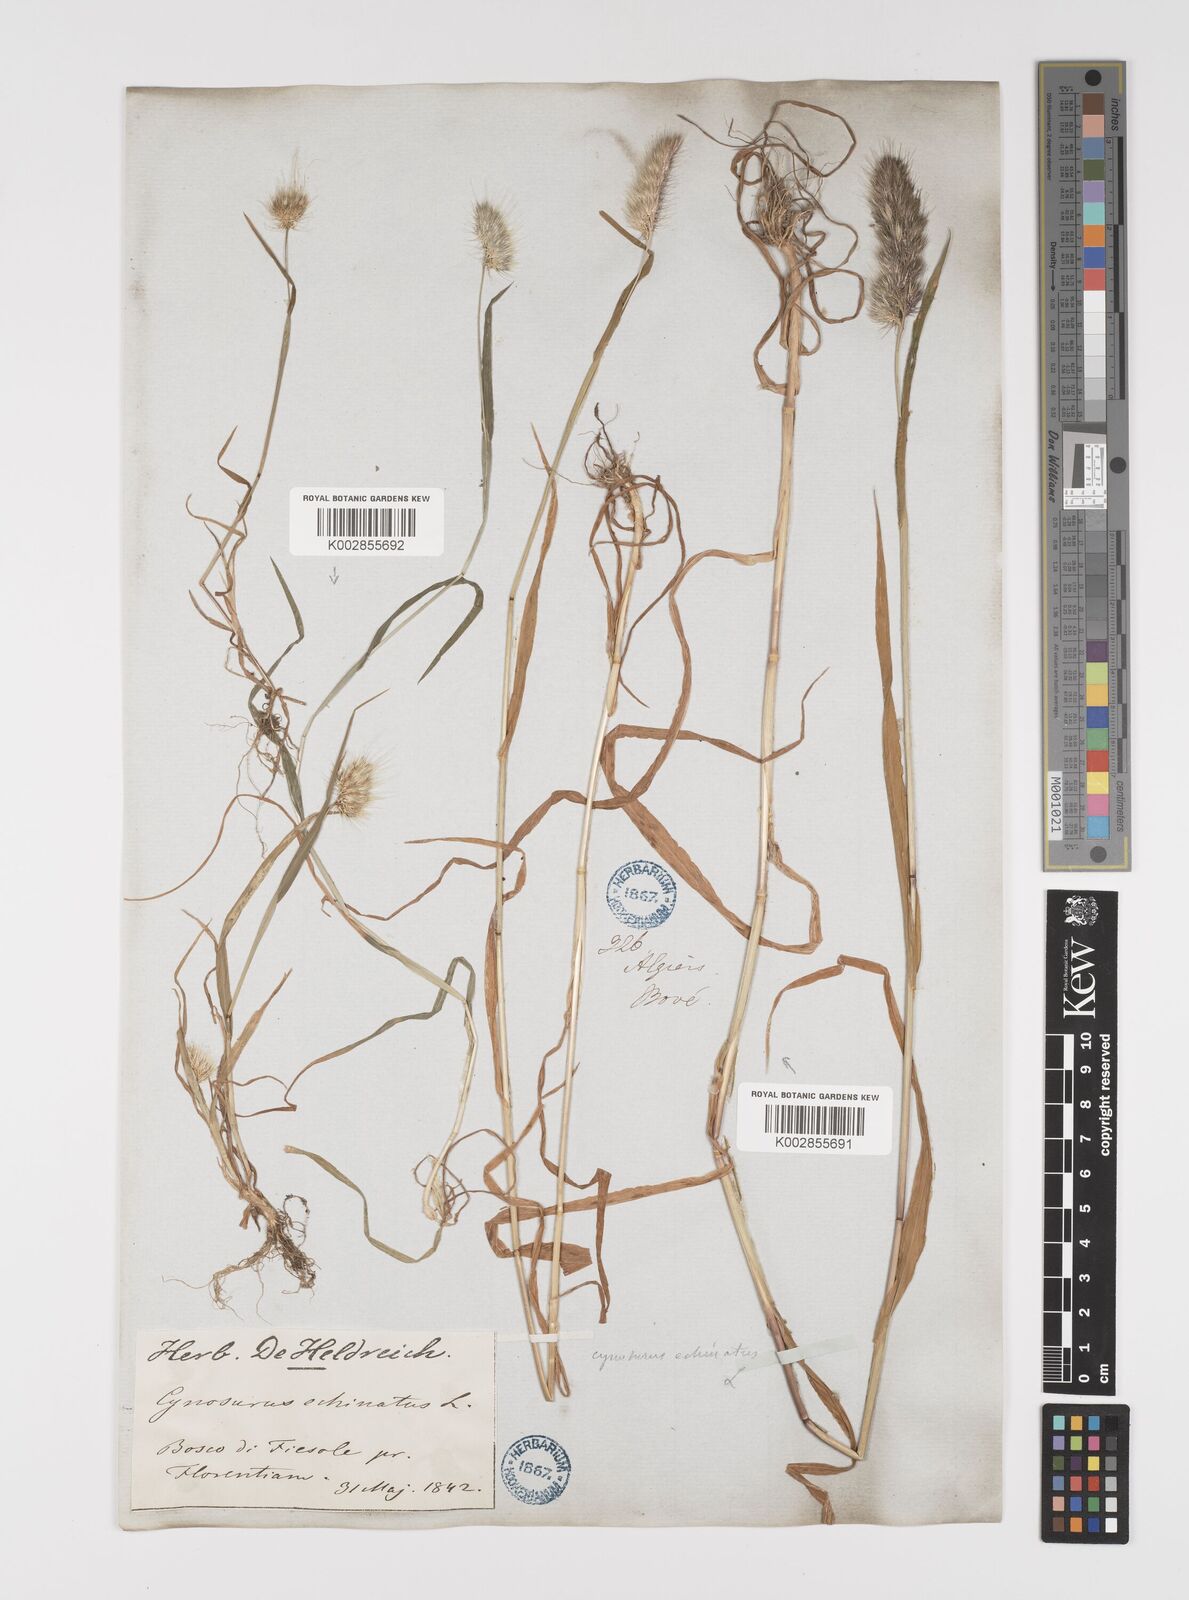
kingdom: Plantae
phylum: Tracheophyta
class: Liliopsida
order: Poales
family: Poaceae
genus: Cynosurus
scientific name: Cynosurus echinatus
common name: Rough dog's-tail
